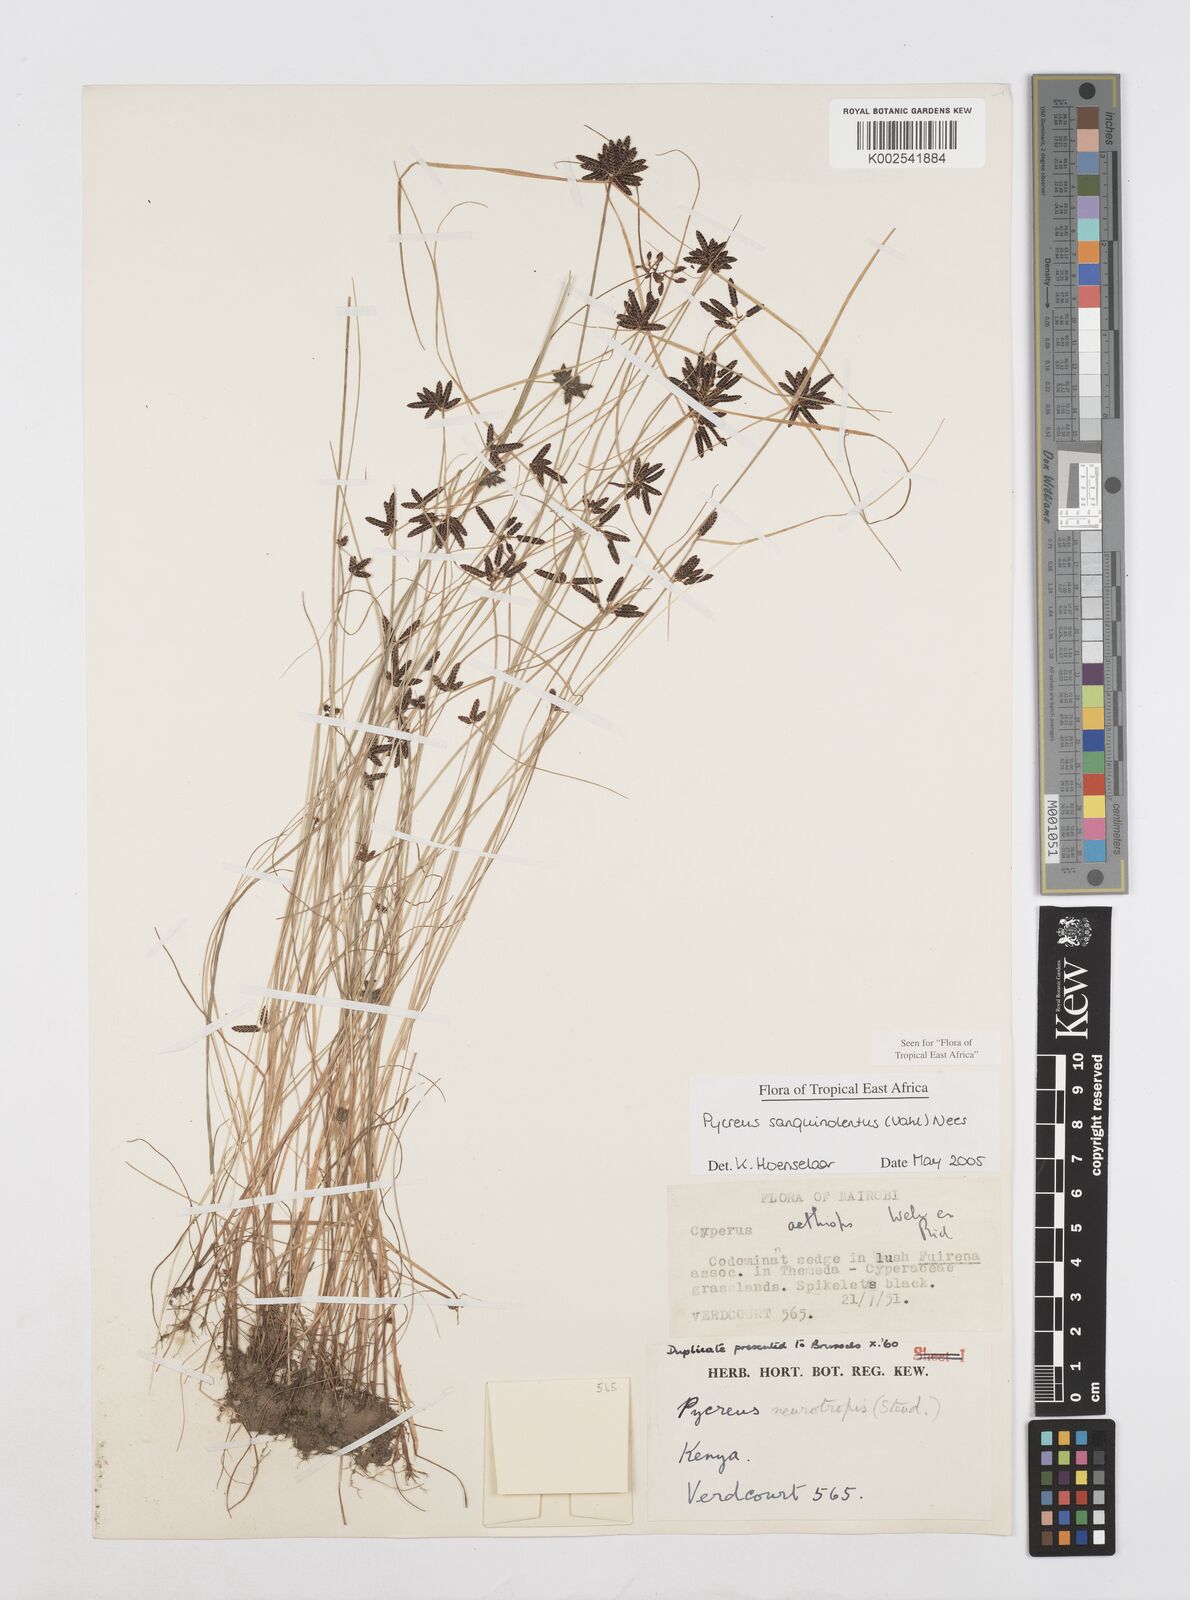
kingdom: Plantae
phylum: Tracheophyta
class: Liliopsida
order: Poales
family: Cyperaceae
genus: Cyperus
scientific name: Cyperus sanguinolentus
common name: Purpleglume flatsedge
